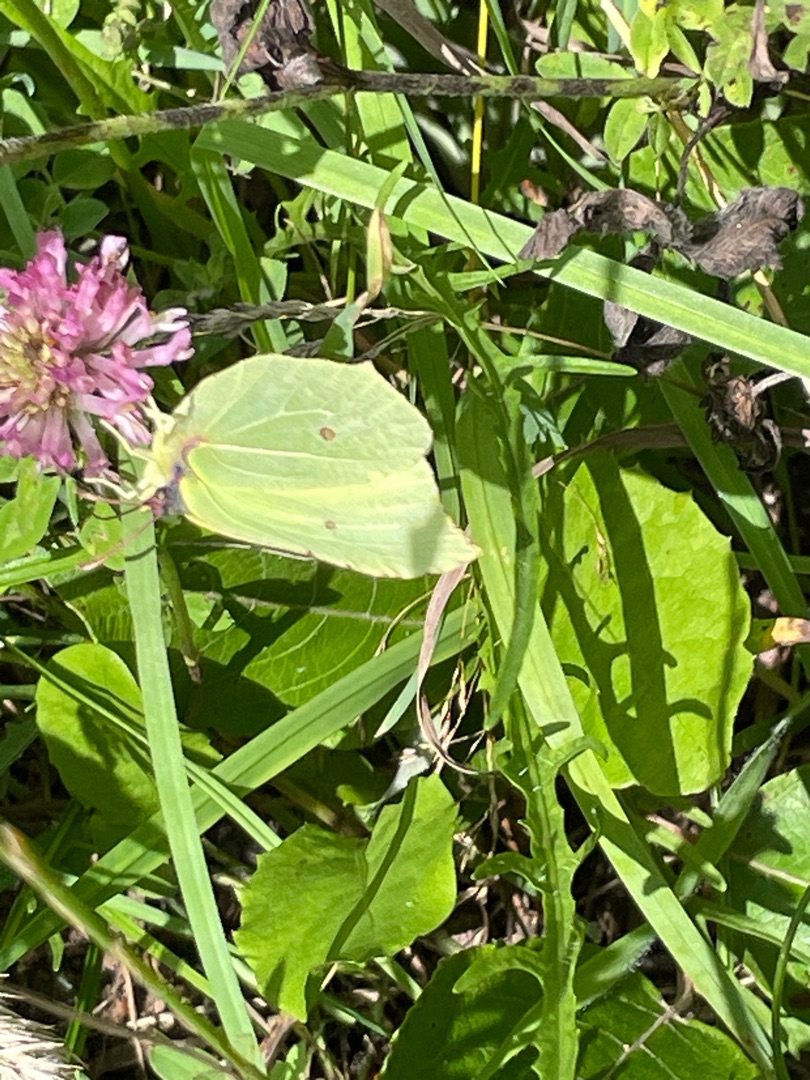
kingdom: Animalia
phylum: Arthropoda
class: Insecta
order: Lepidoptera
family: Pieridae
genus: Gonepteryx
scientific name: Gonepteryx rhamni
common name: Citronsommerfugl
